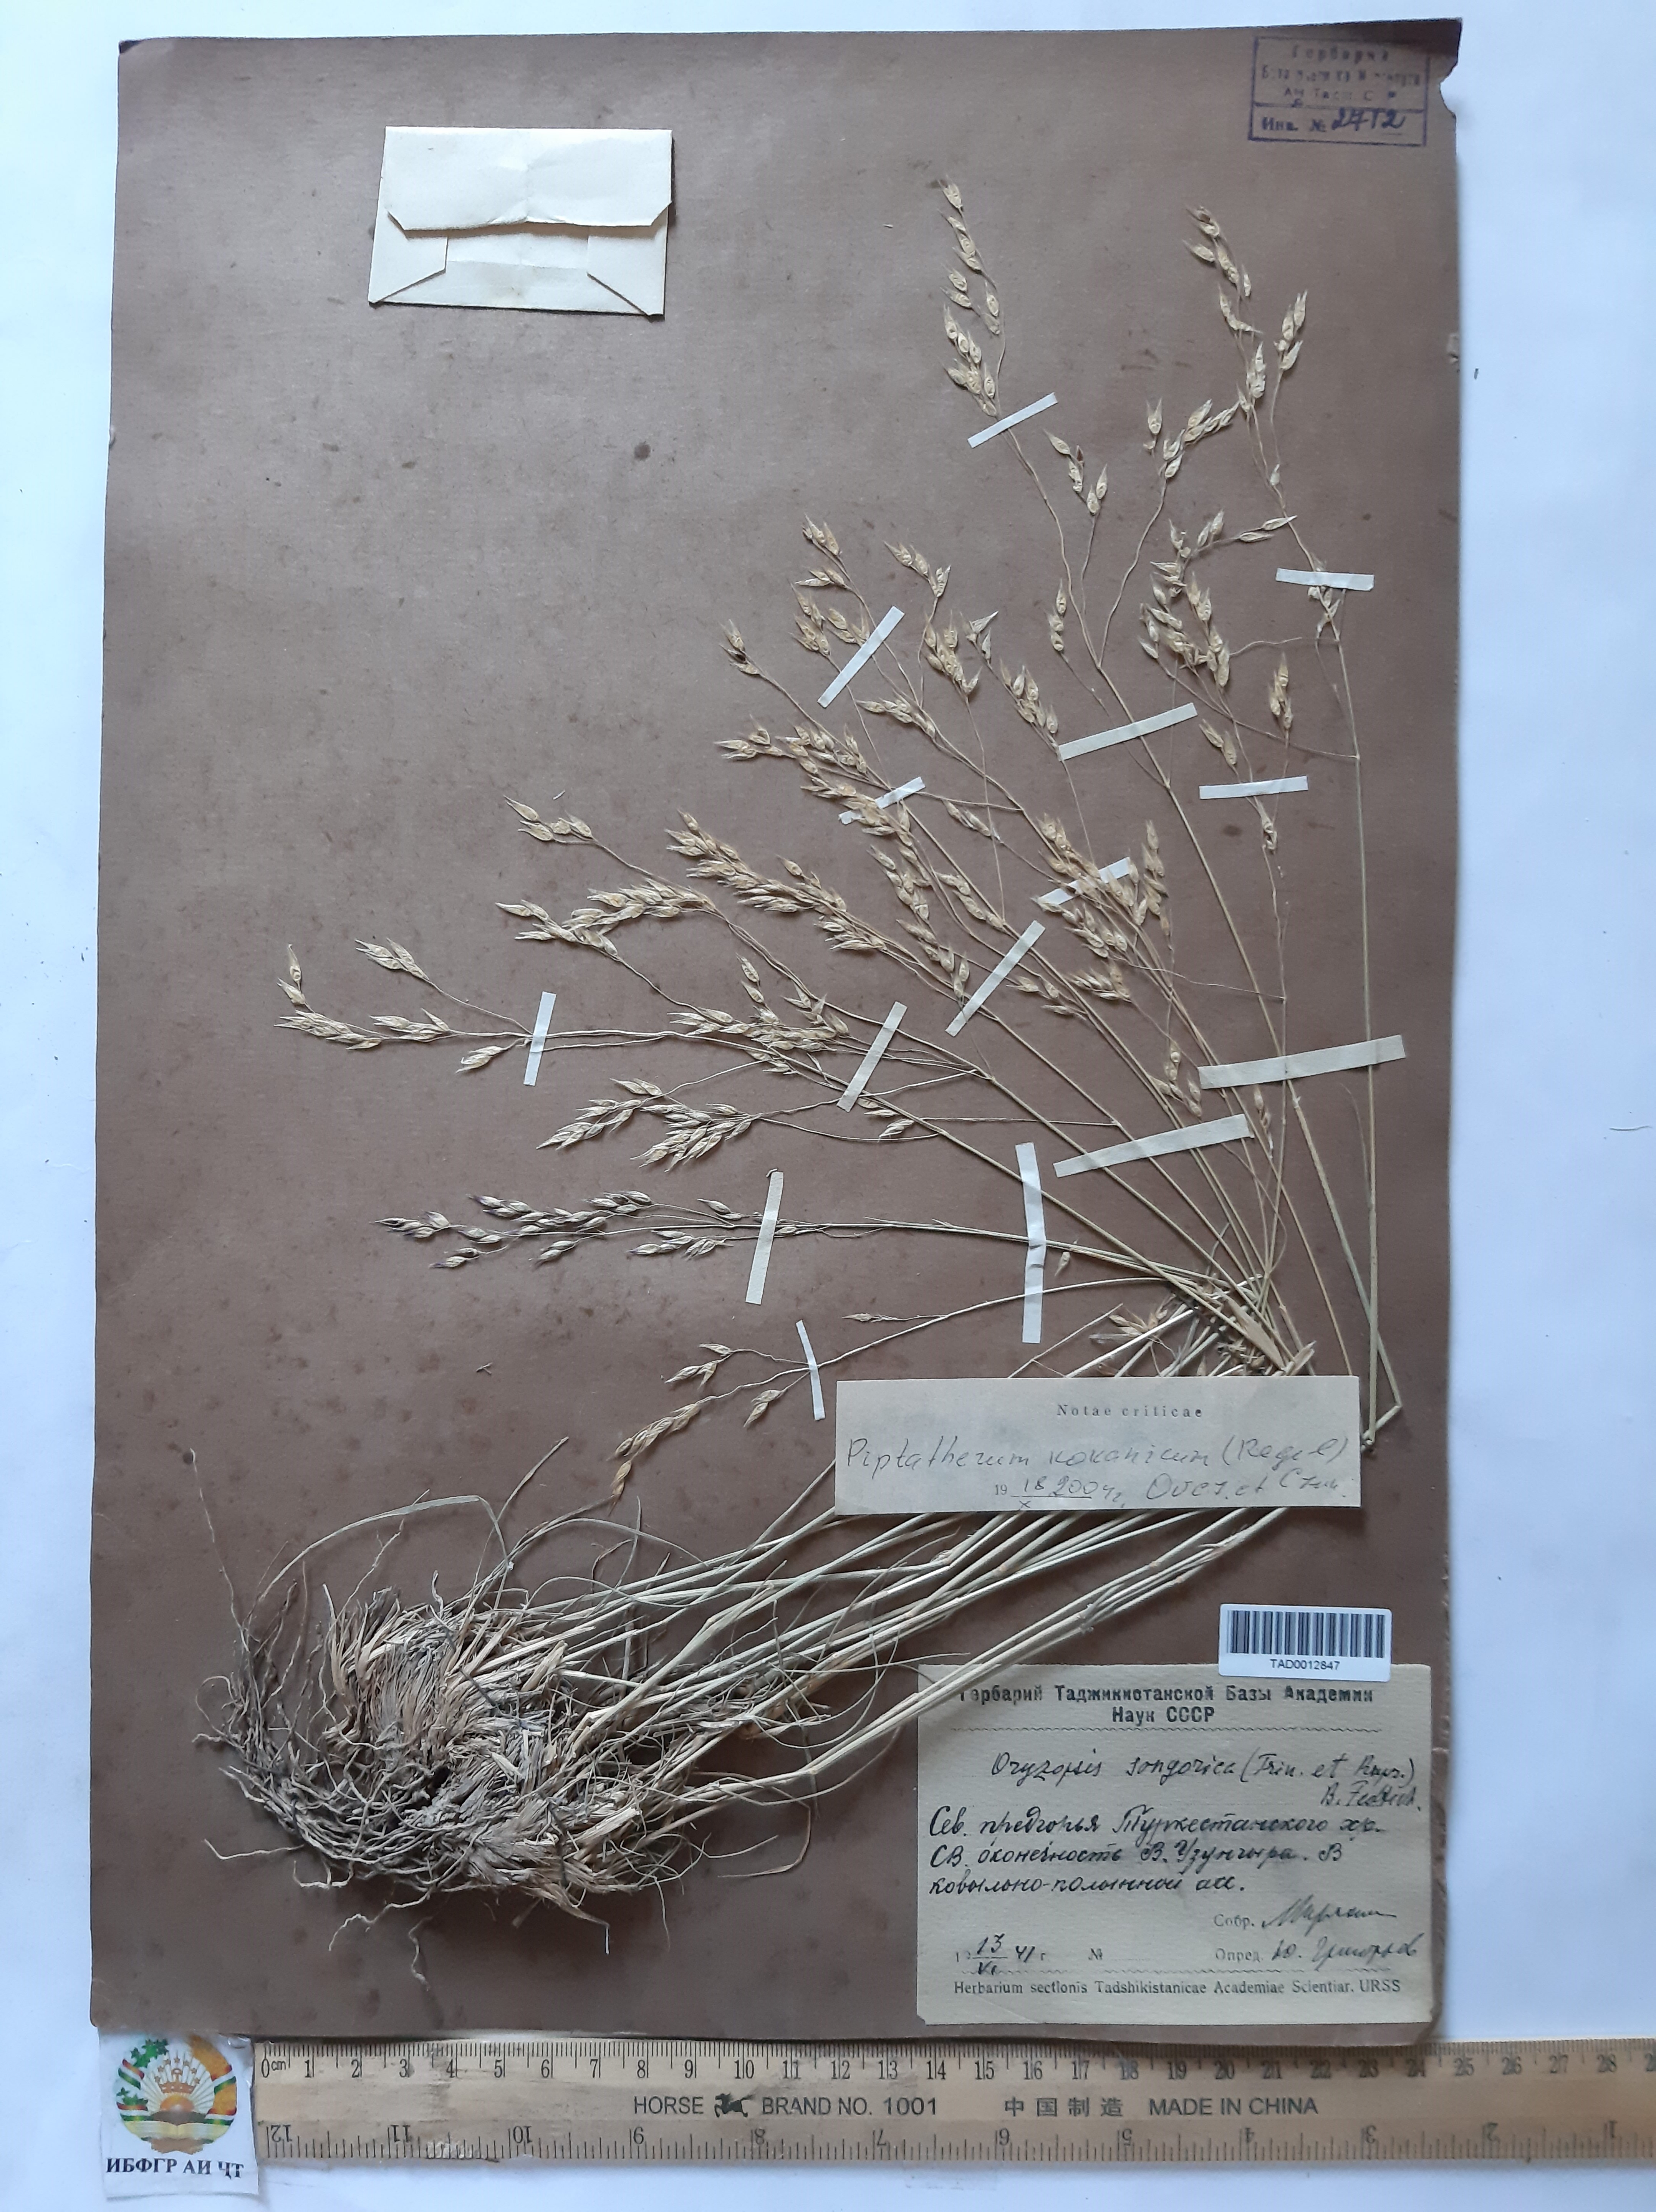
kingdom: Plantae
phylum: Tracheophyta
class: Liliopsida
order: Poales
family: Poaceae
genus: Piptatherum
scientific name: Piptatherum songaricum
